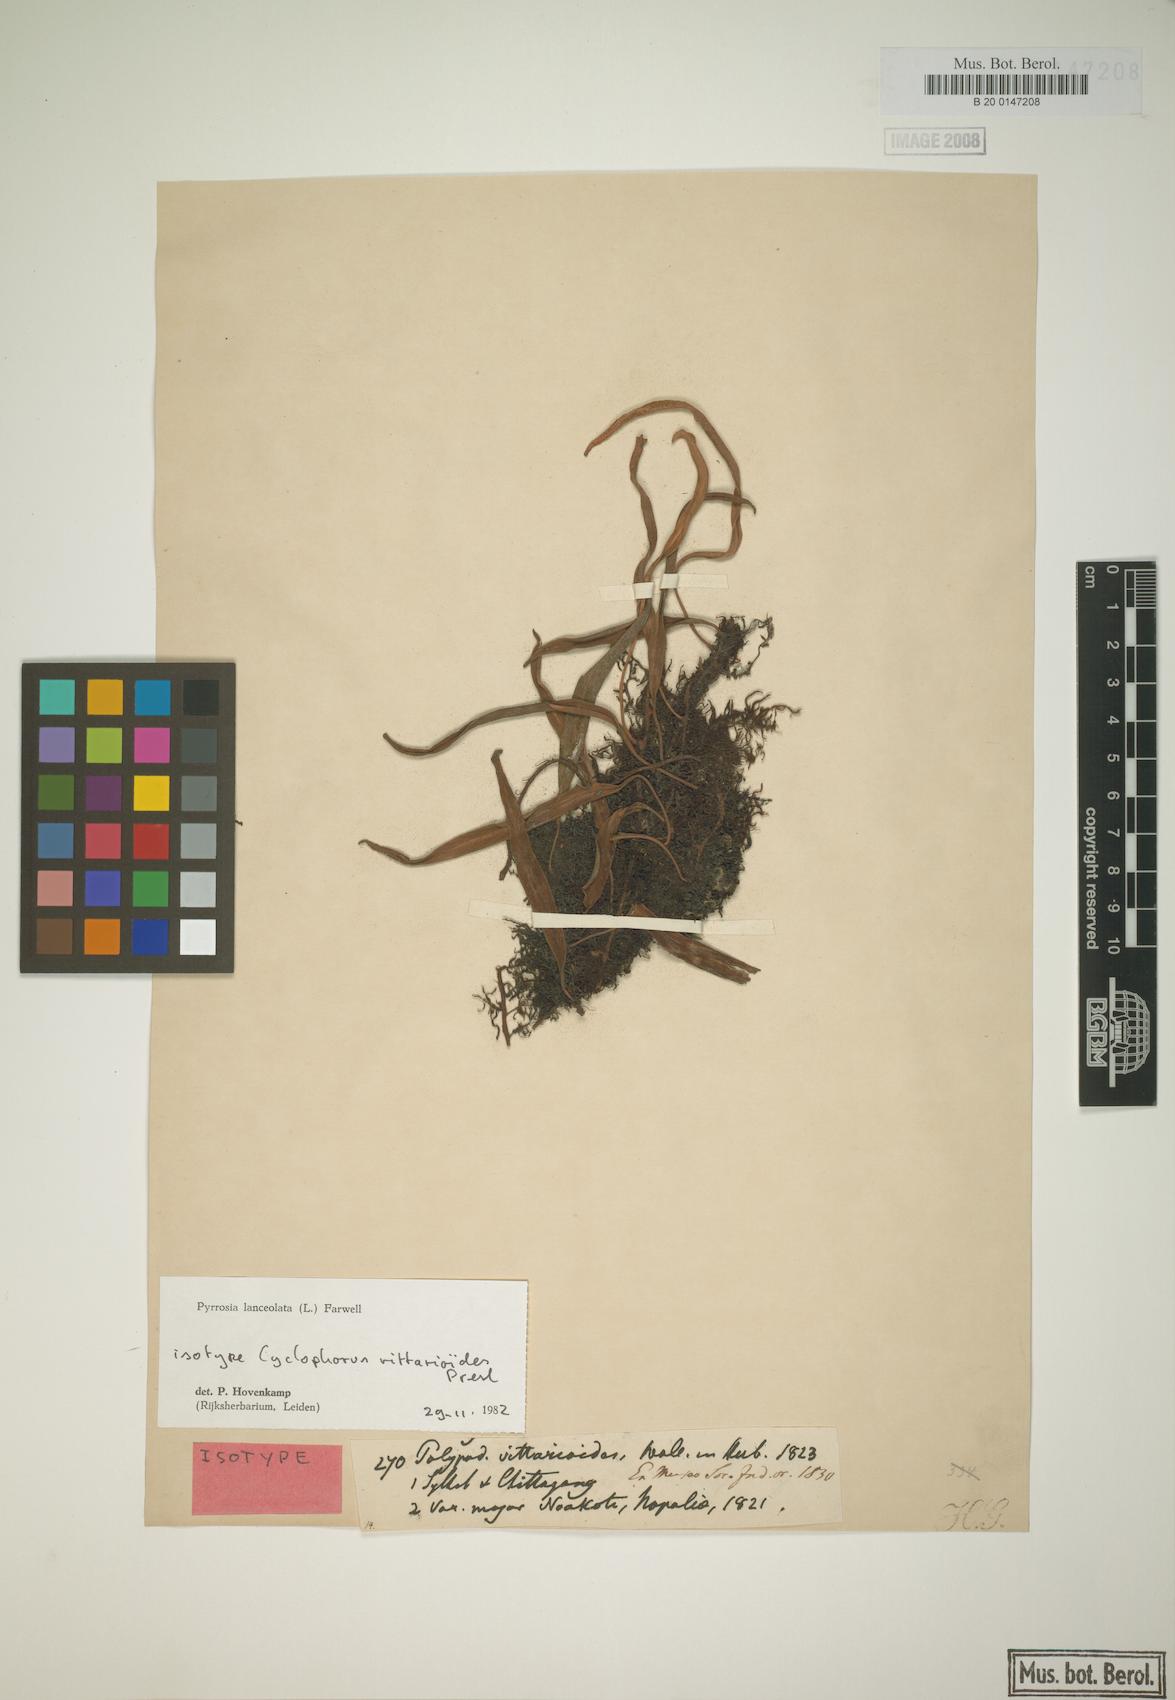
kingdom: Plantae
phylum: Tracheophyta
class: Polypodiopsida
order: Polypodiales
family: Polypodiaceae
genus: Pyrrosia
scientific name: Pyrrosia lanceolata
